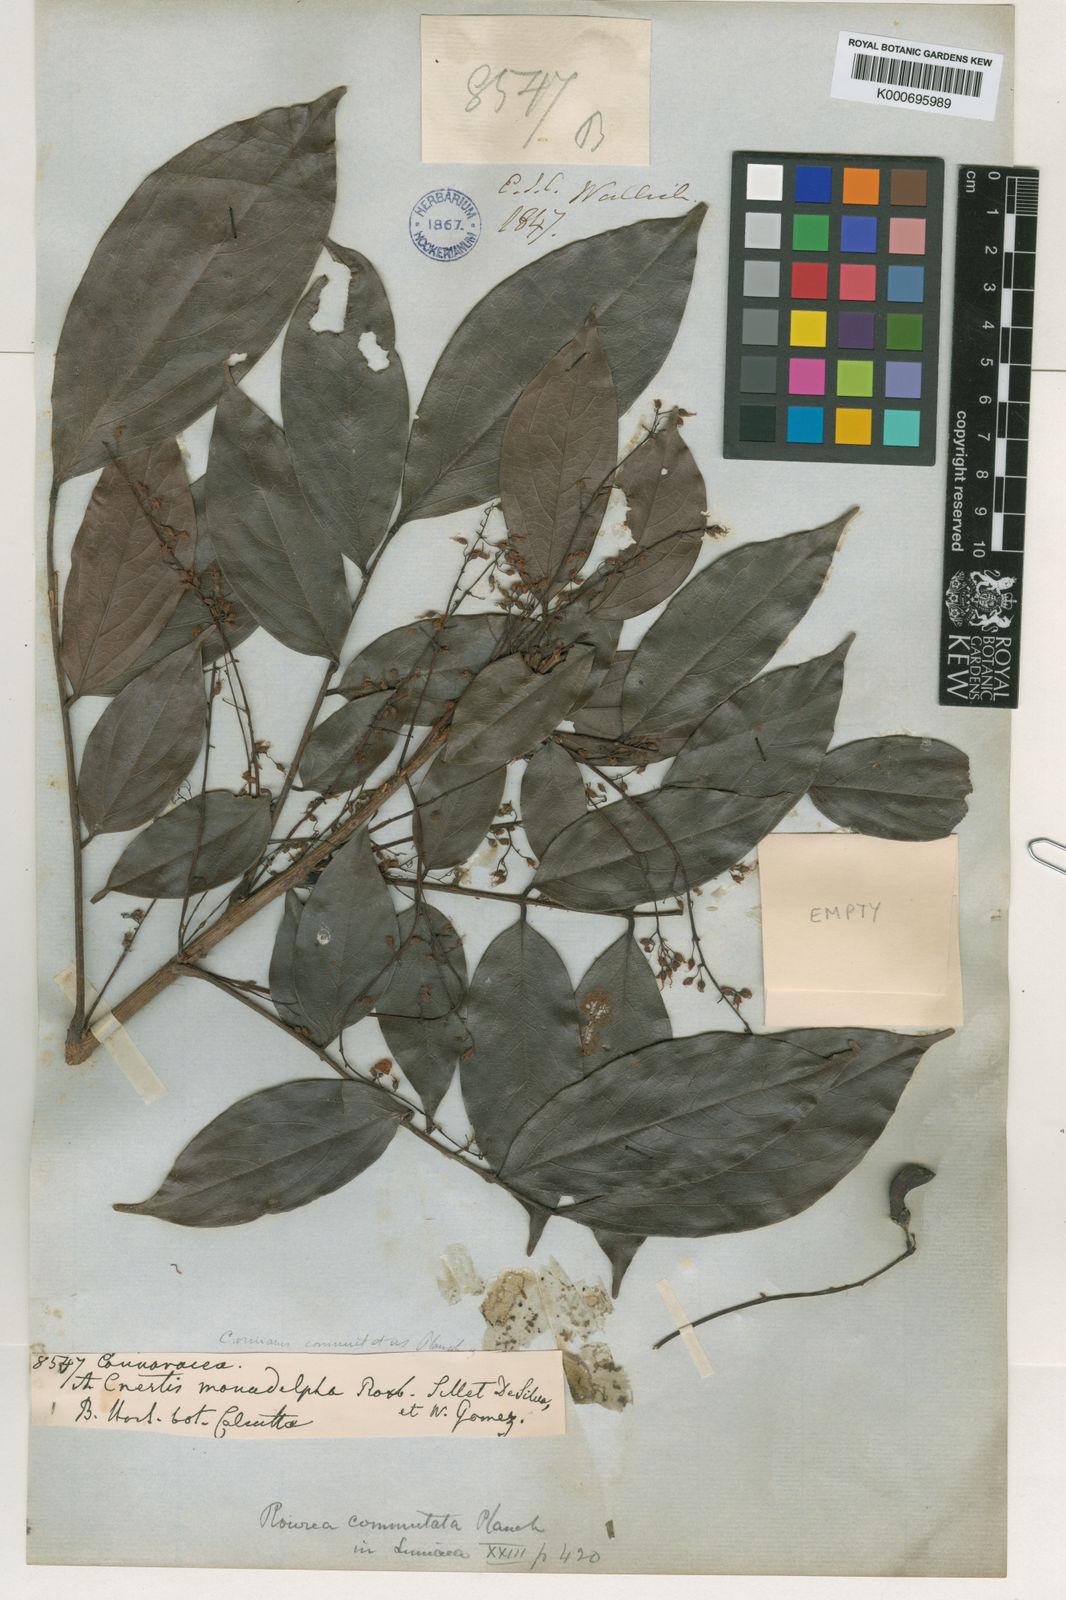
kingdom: Plantae
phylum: Tracheophyta
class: Magnoliopsida
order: Oxalidales
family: Connaraceae
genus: Rourea
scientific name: Rourea minor
